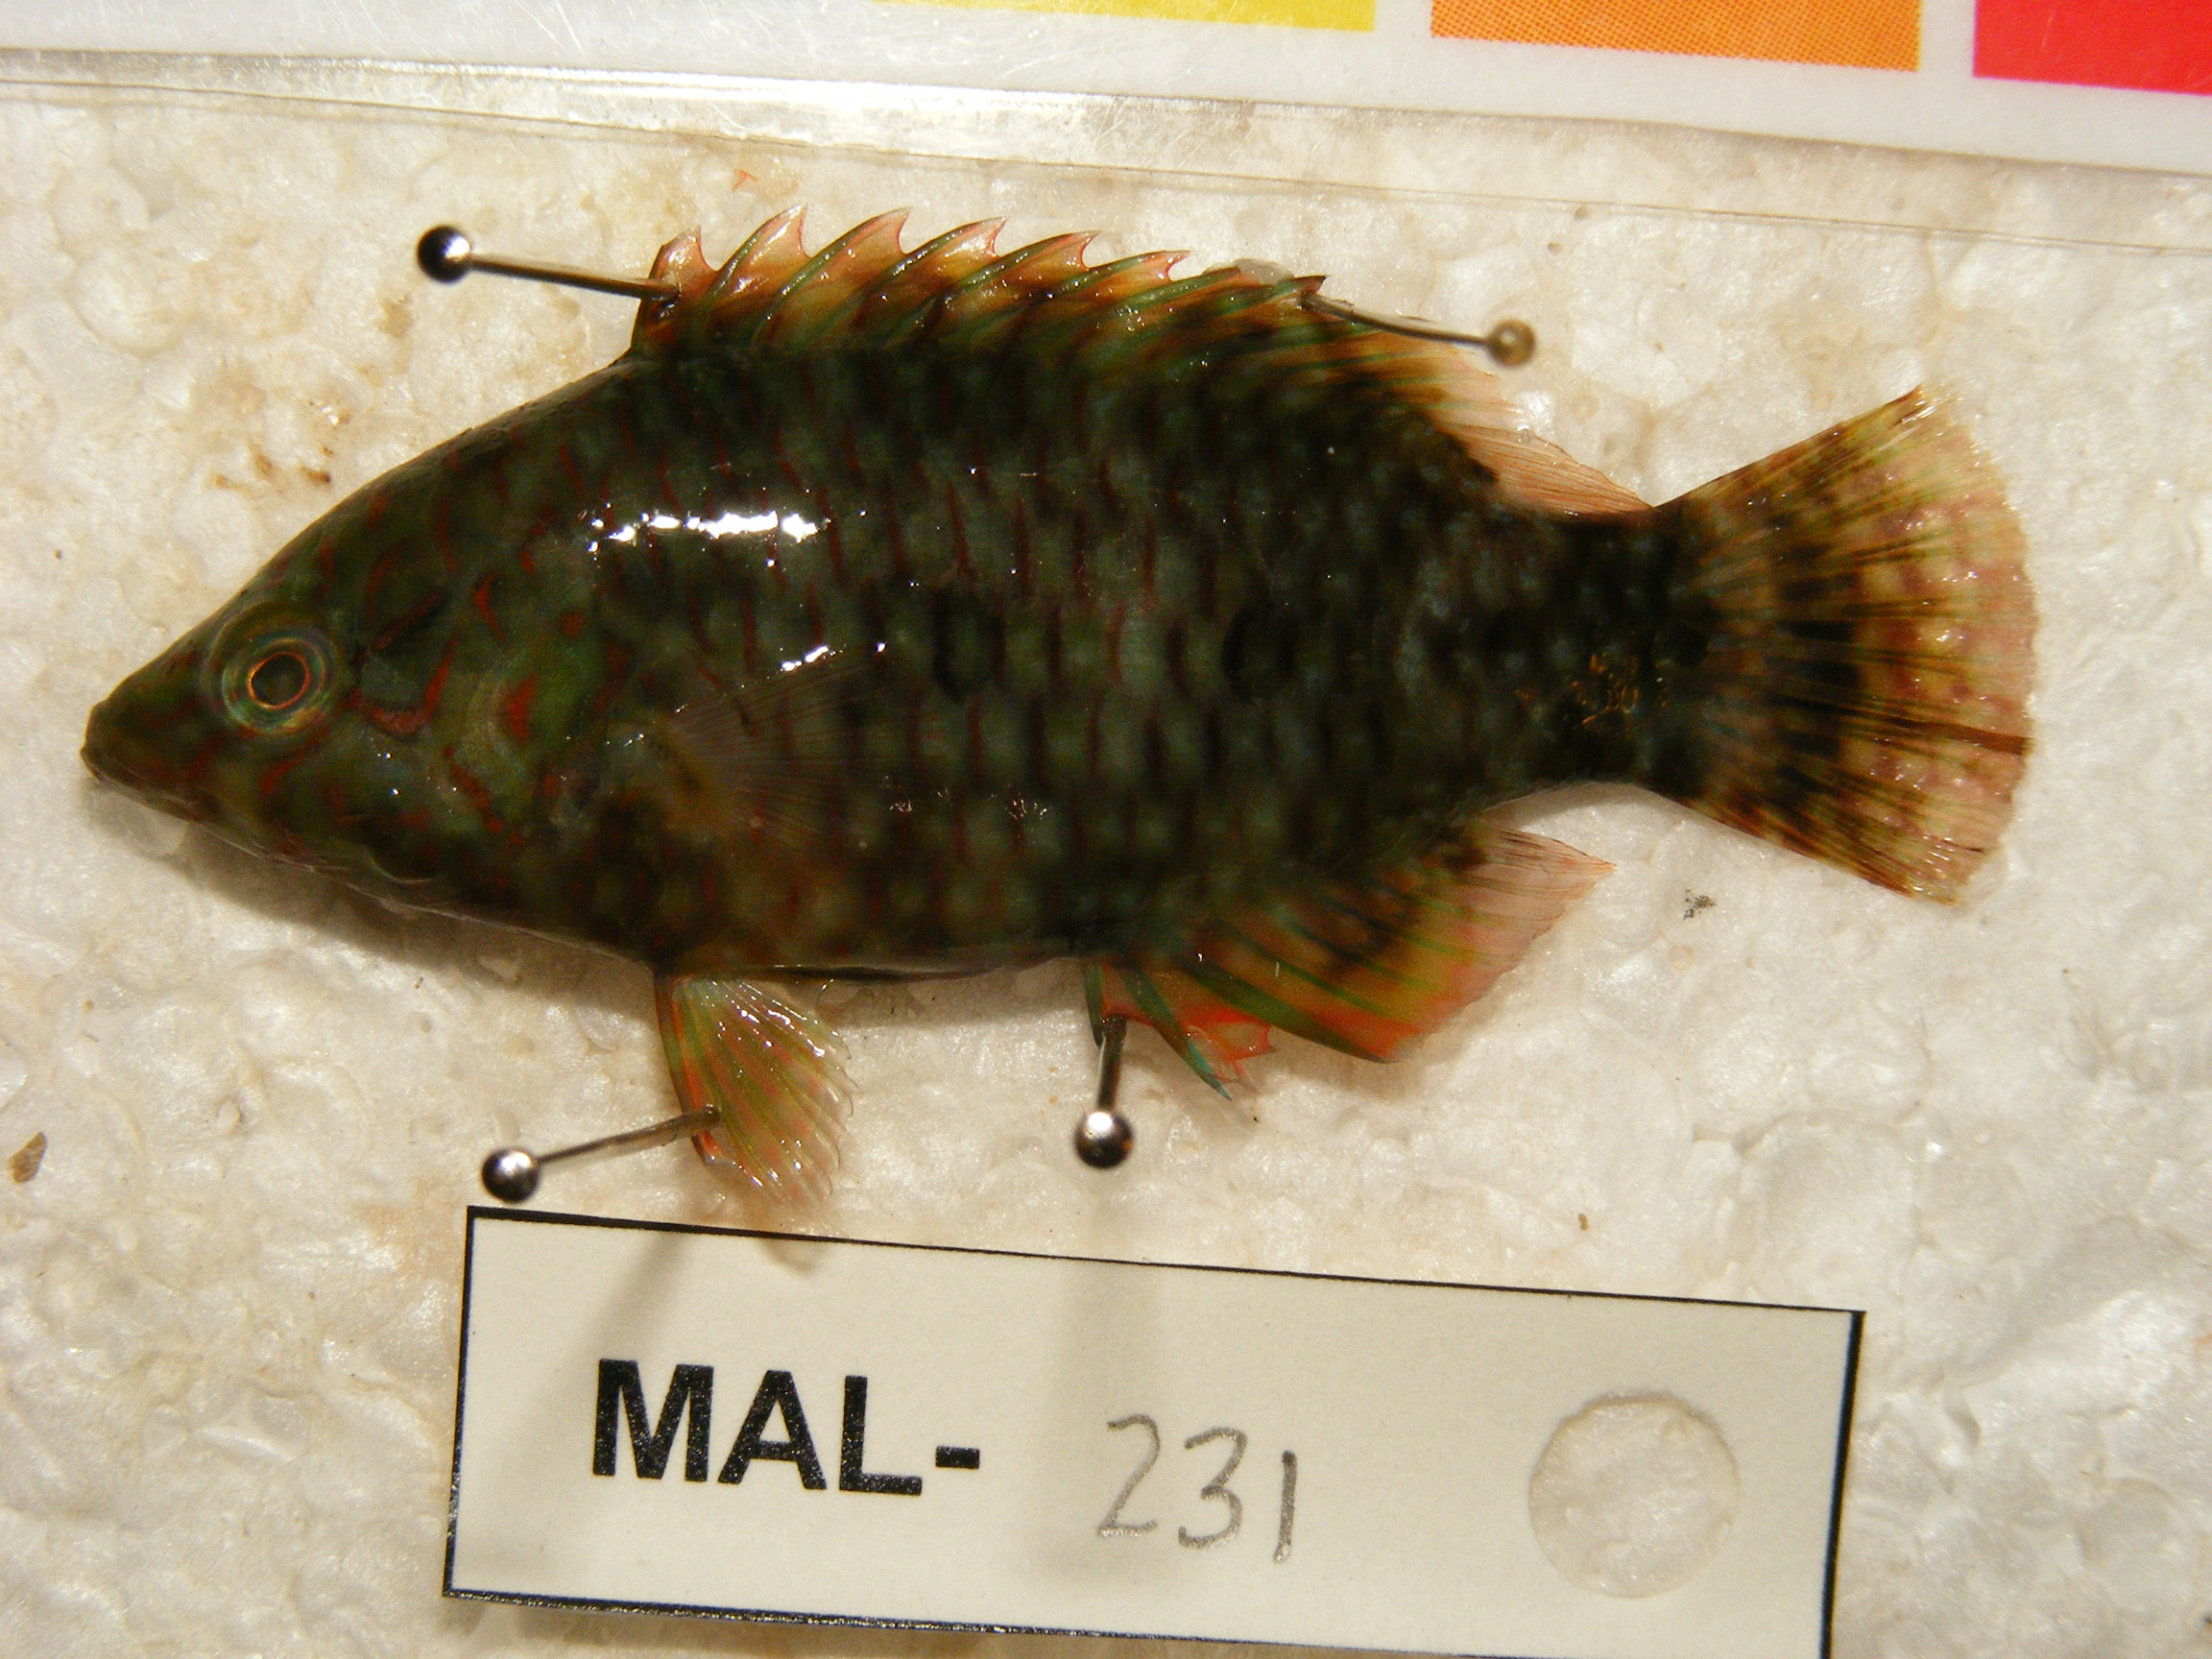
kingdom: Animalia
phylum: Chordata
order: Perciformes
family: Labridae
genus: Cheilinus
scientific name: Cheilinus trilobatus
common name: Tripletail maori wrasse
